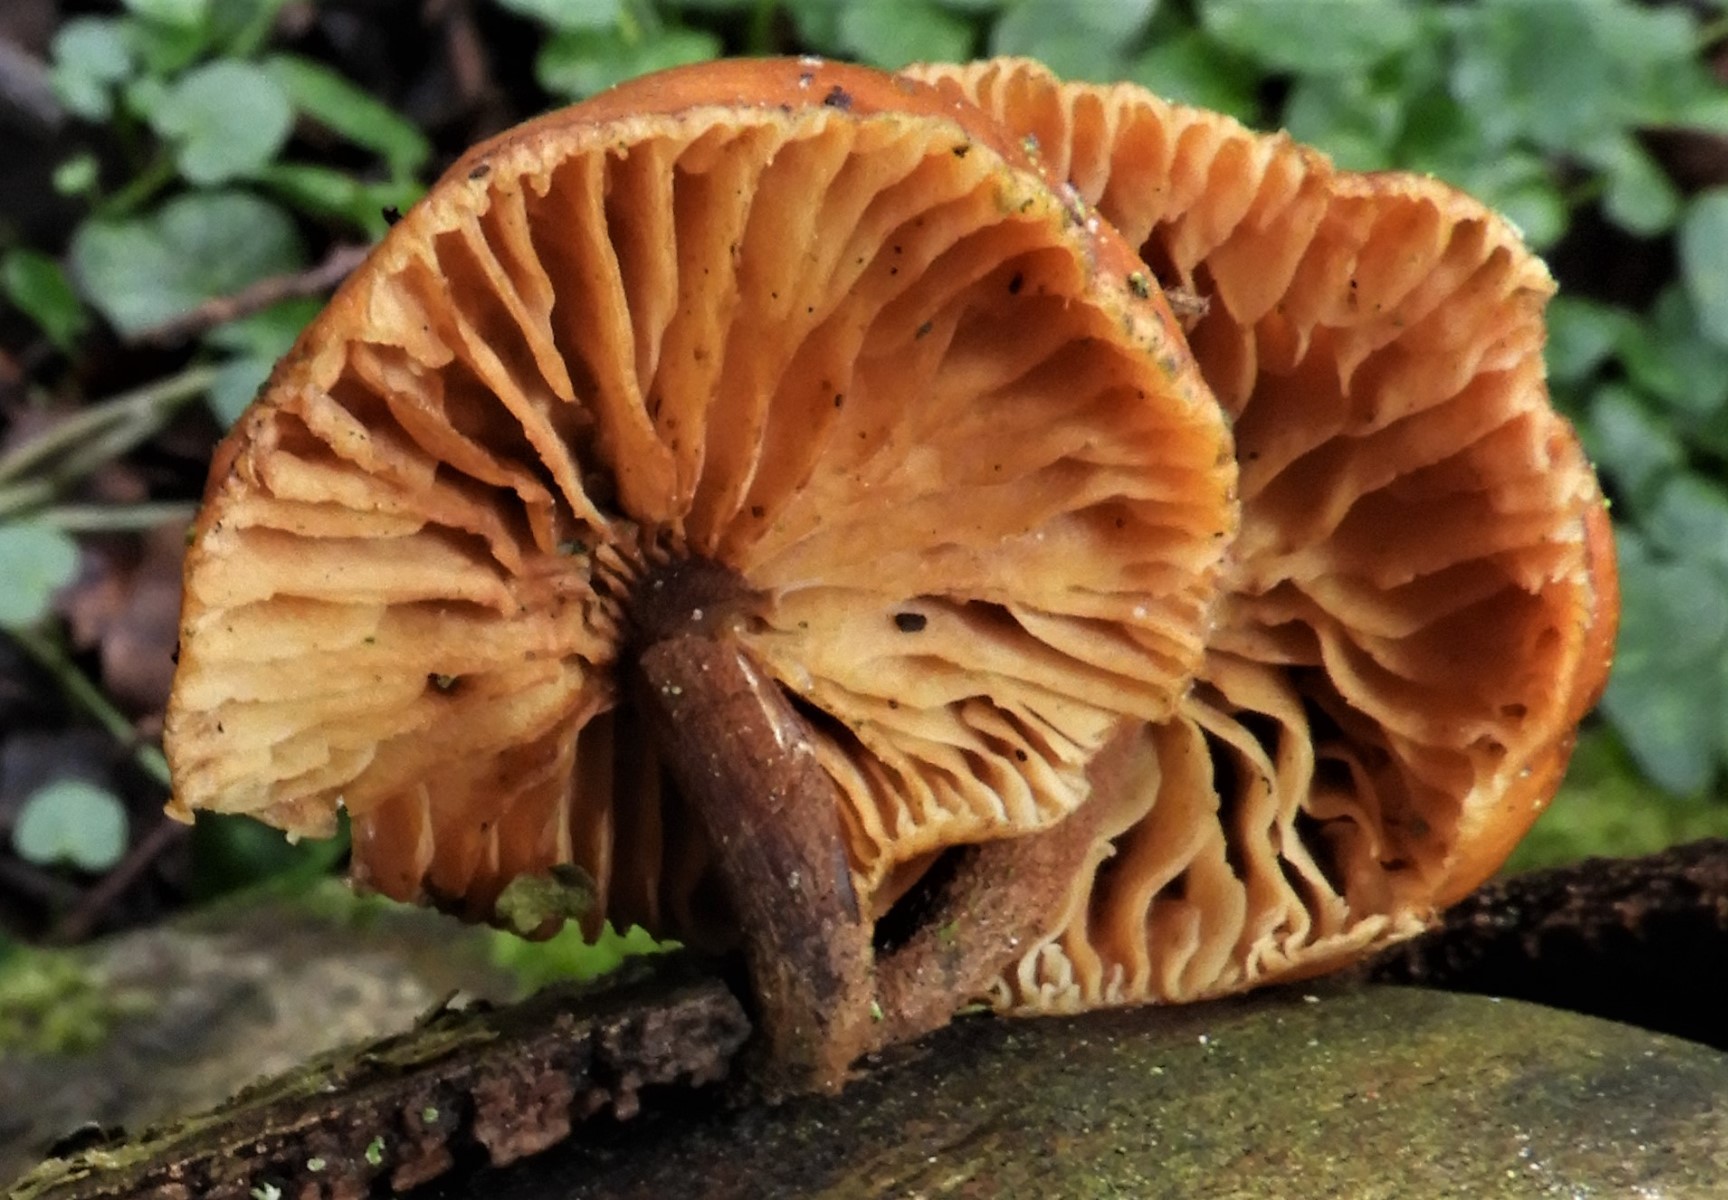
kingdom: Fungi
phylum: Basidiomycota
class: Agaricomycetes
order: Agaricales
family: Physalacriaceae
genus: Flammulina
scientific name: Flammulina velutipes
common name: gul fløjlsfod
